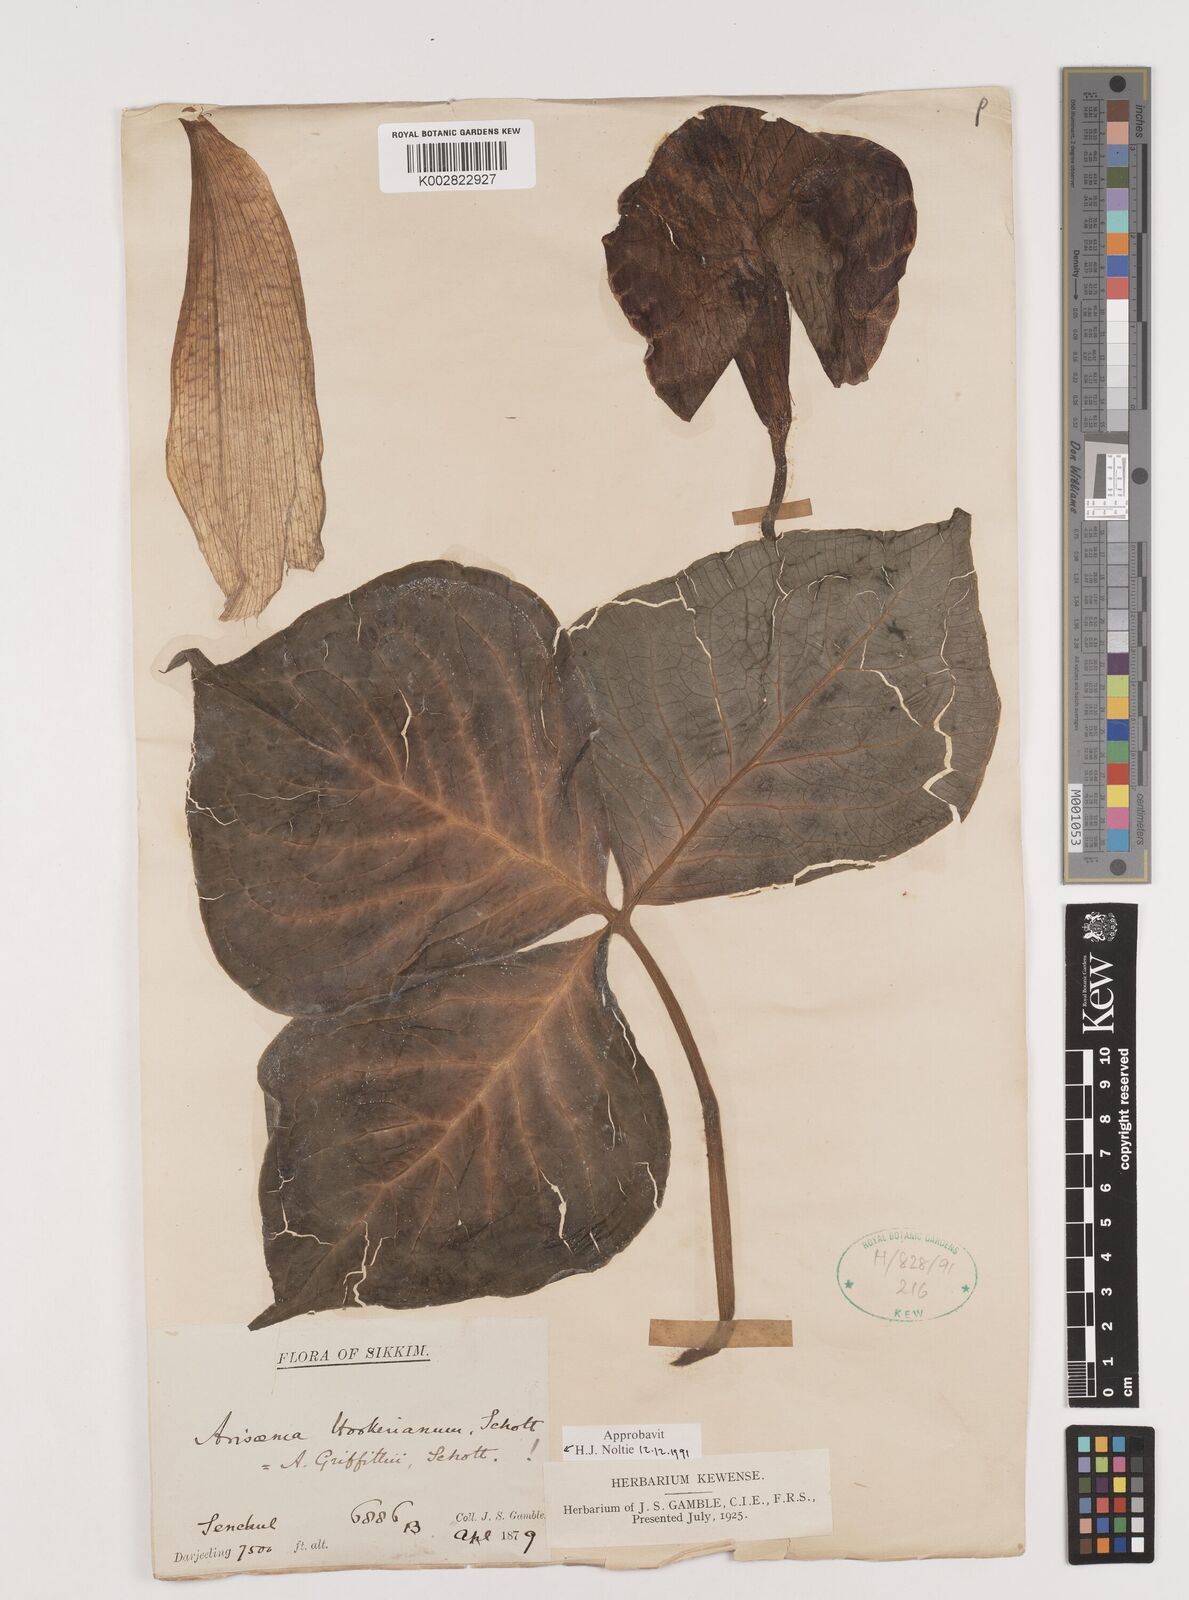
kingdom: Plantae
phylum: Tracheophyta
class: Liliopsida
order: Alismatales
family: Araceae
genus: Arisaema
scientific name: Arisaema griffithii
